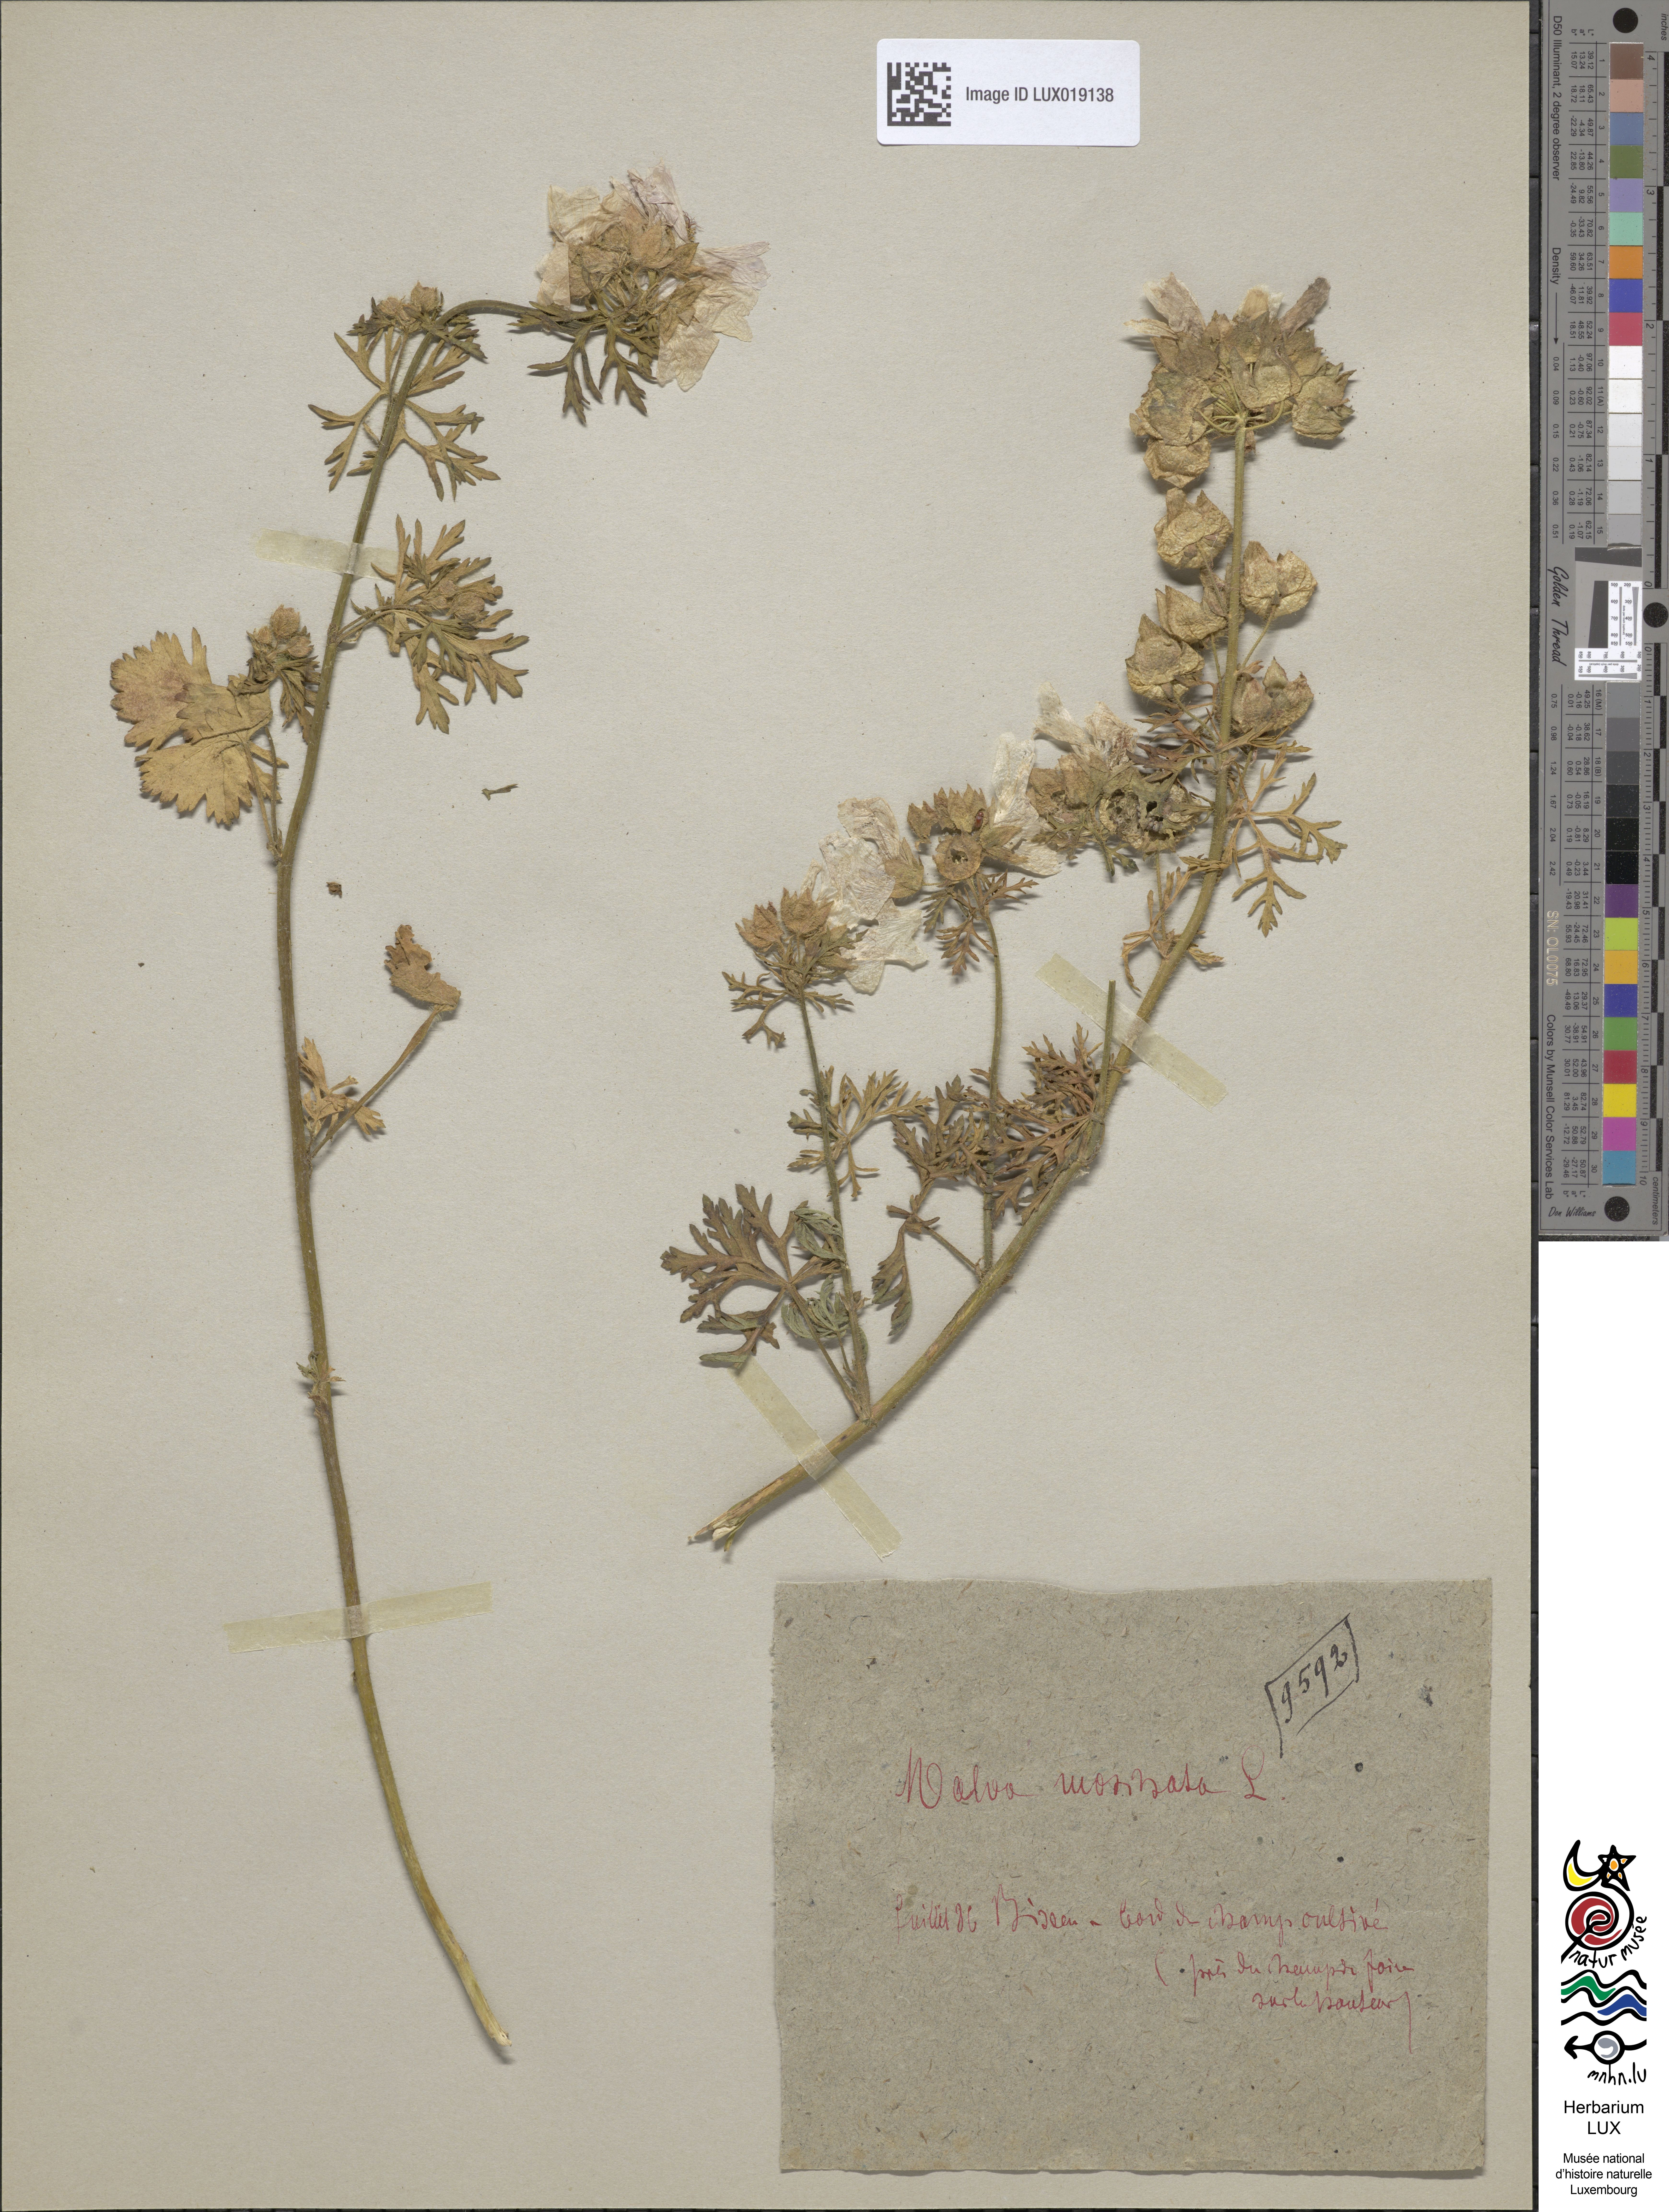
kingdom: Plantae
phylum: Tracheophyta
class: Magnoliopsida
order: Malvales
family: Malvaceae
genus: Malva
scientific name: Malva moschata
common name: Musk mallow
